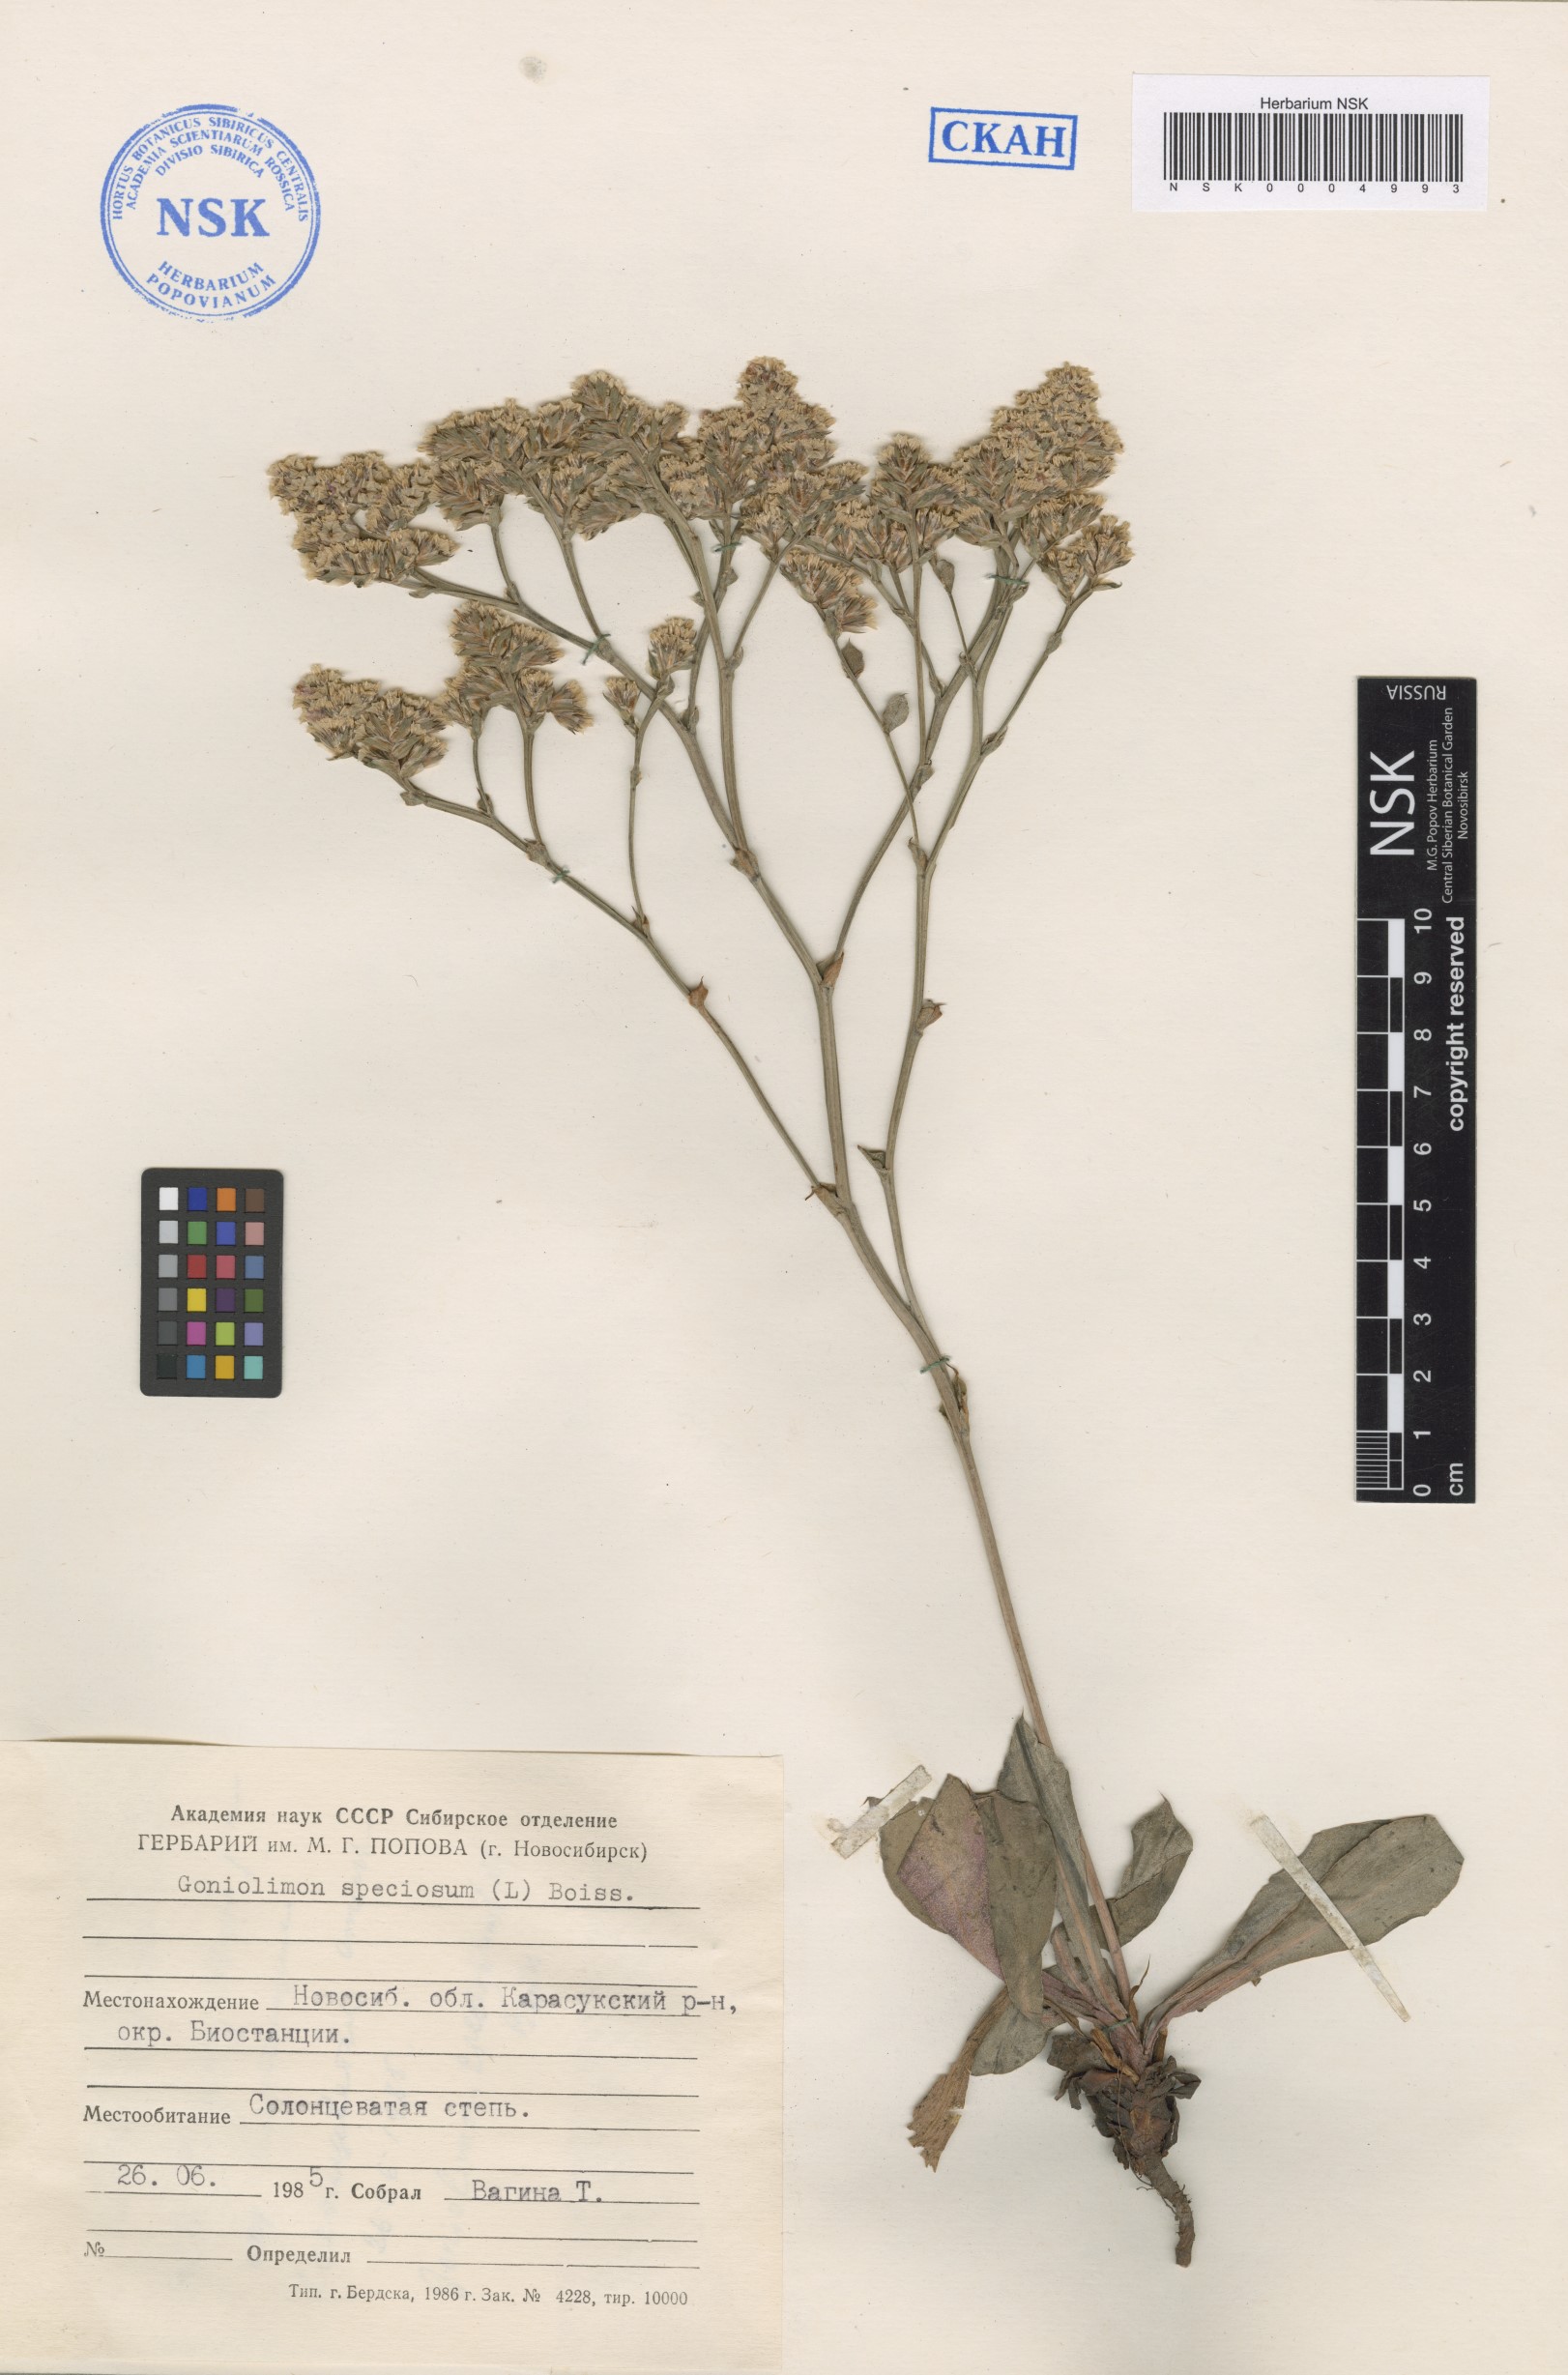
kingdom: Plantae
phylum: Tracheophyta
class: Magnoliopsida
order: Caryophyllales
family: Plumbaginaceae
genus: Goniolimon
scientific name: Goniolimon speciosum
